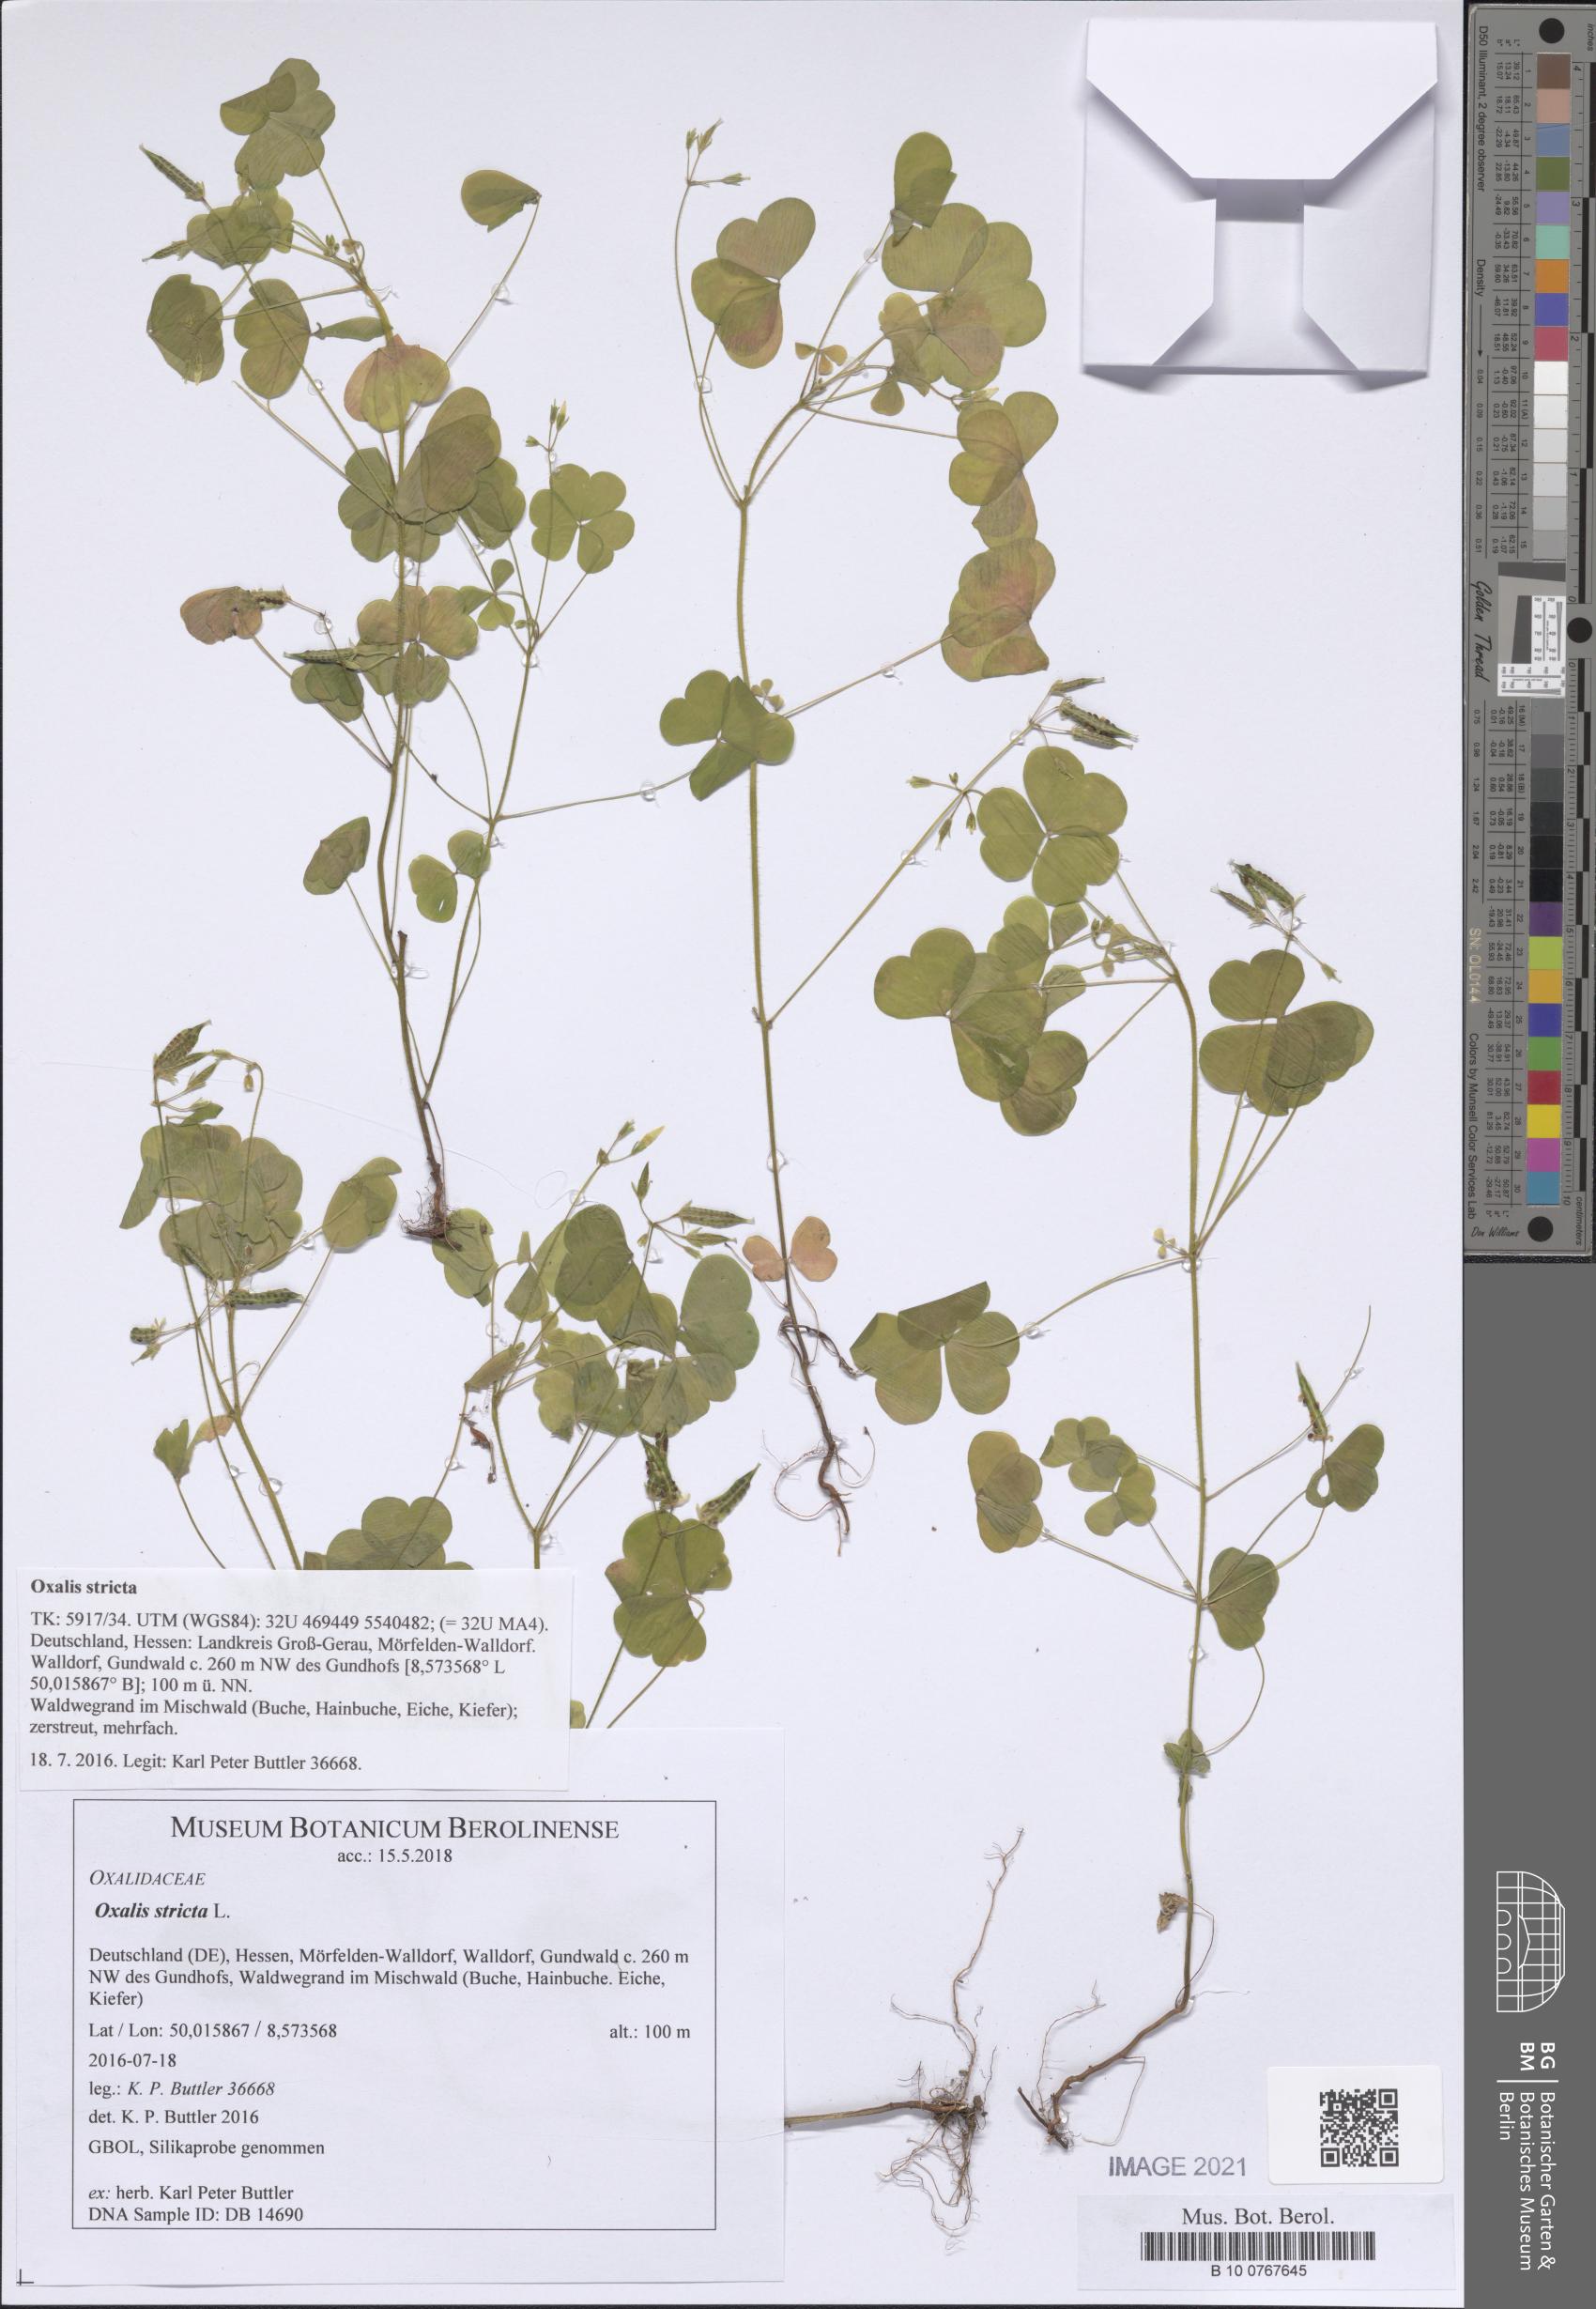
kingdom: Plantae
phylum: Tracheophyta
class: Magnoliopsida
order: Oxalidales
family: Oxalidaceae
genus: Oxalis
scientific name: Oxalis stricta
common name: Upright yellow-sorrel
